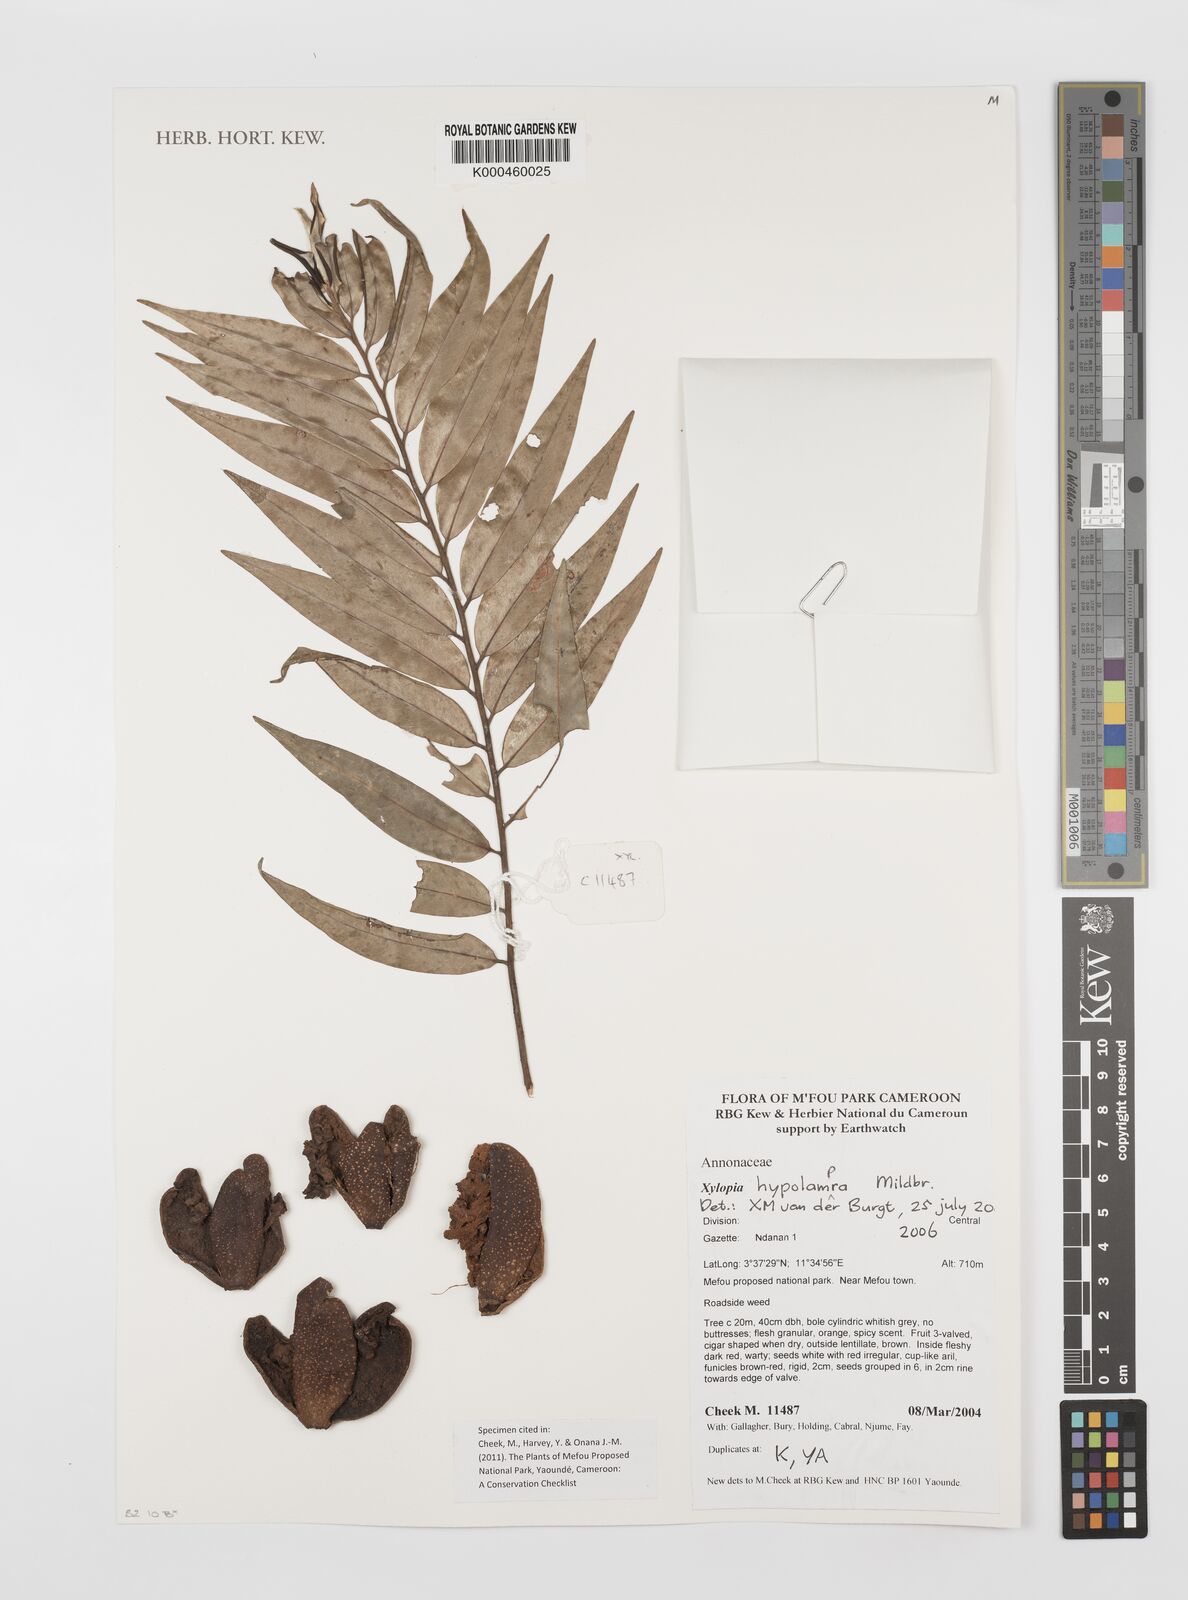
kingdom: Plantae
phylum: Tracheophyta
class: Magnoliopsida
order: Magnoliales
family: Annonaceae
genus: Xylopia
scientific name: Xylopia hypolampra
